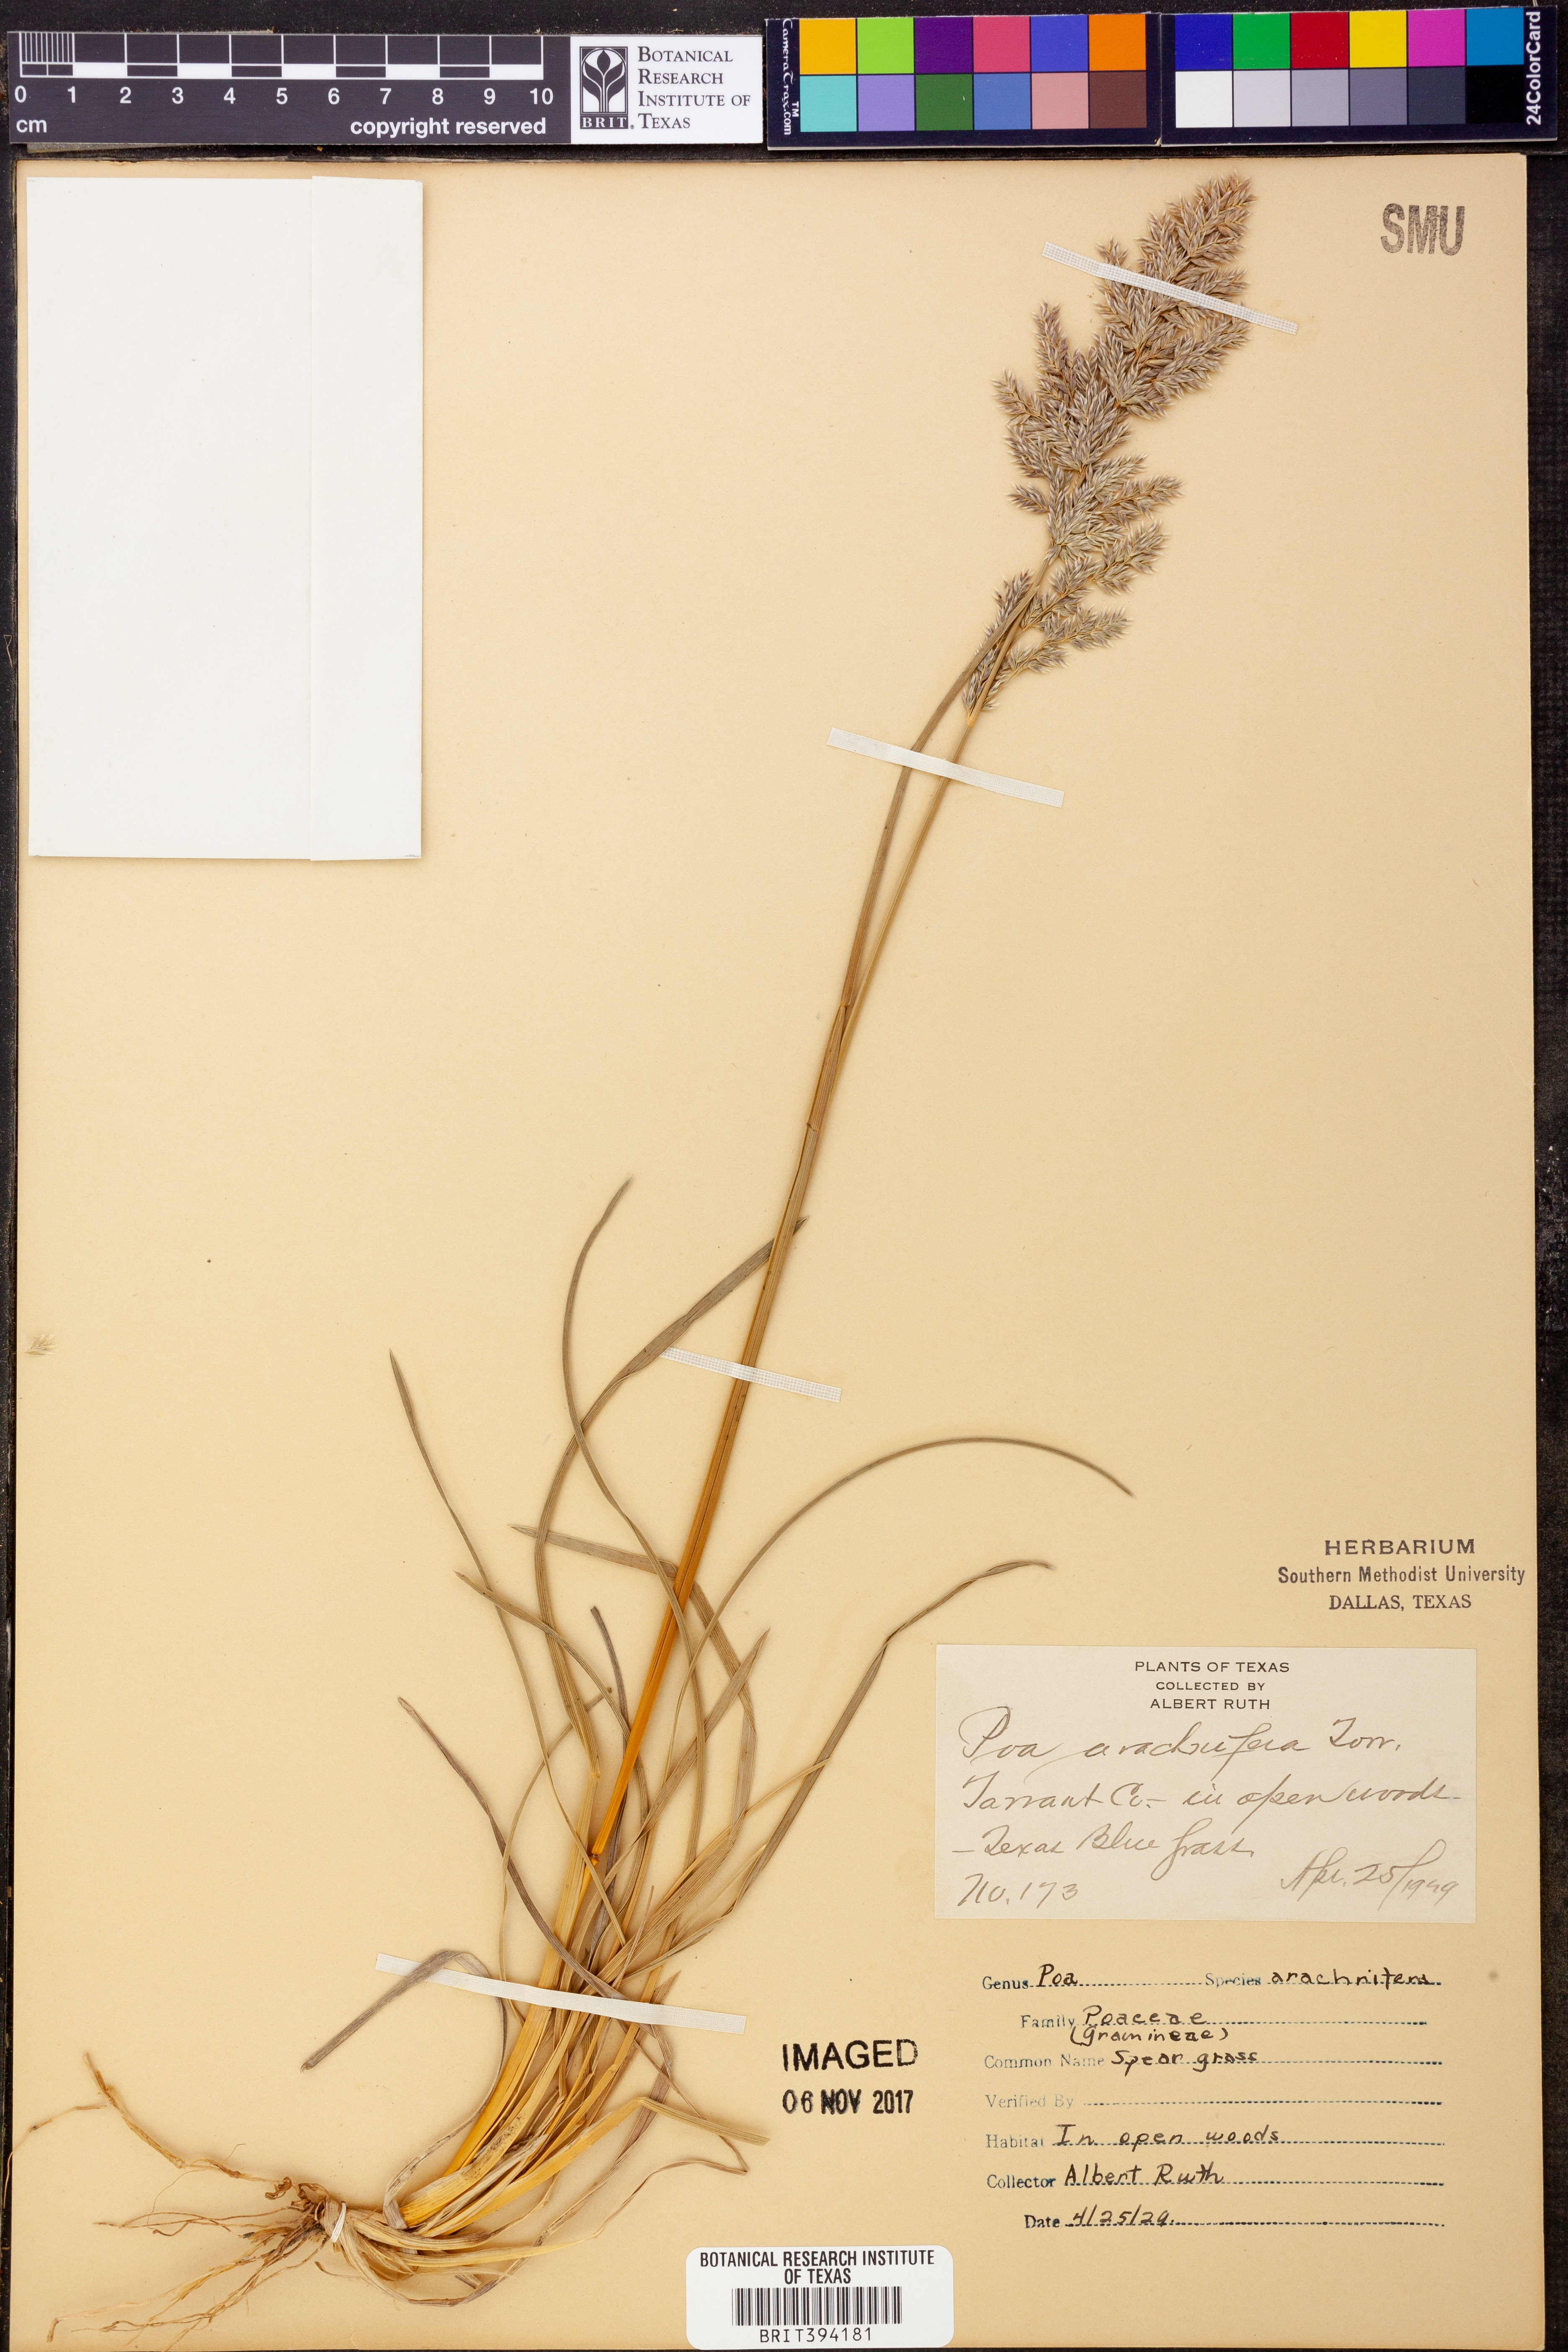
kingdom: Plantae
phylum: Tracheophyta
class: Liliopsida
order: Poales
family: Poaceae
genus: Poa
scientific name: Poa arachnifera
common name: Texas bluegrass
